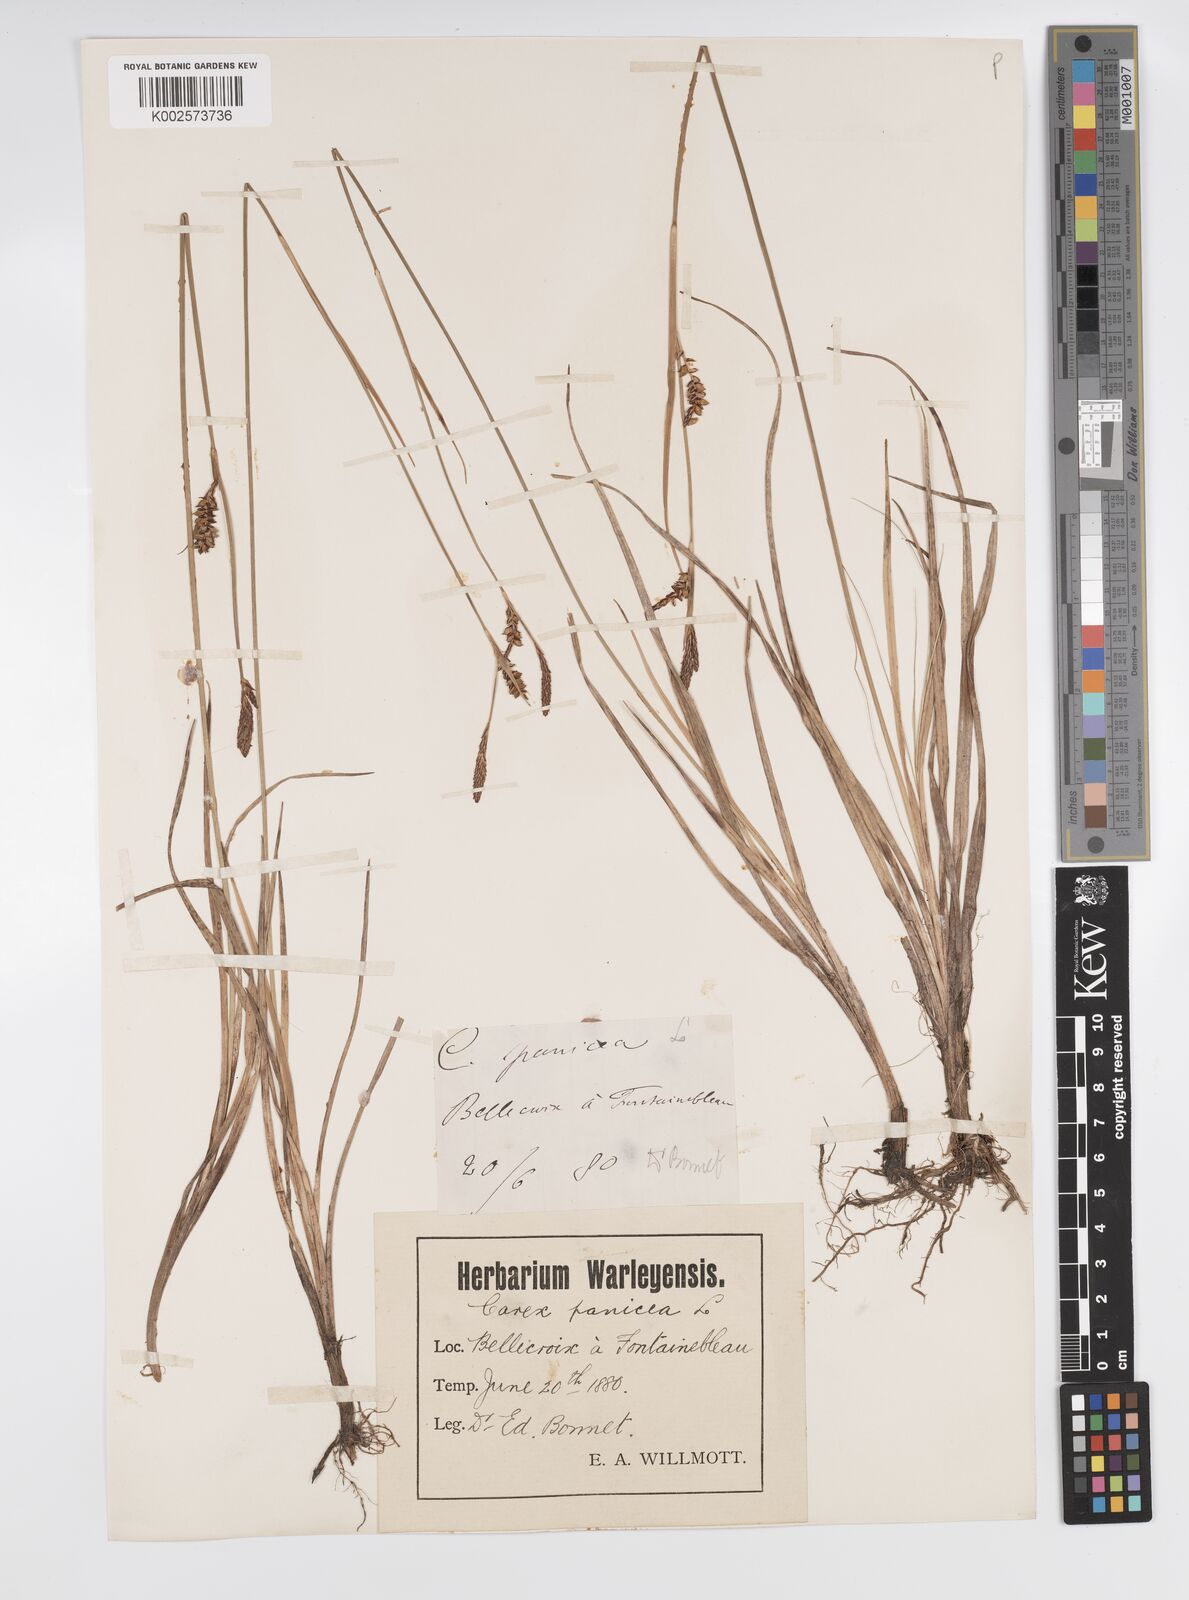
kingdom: Plantae
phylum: Tracheophyta
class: Liliopsida
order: Poales
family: Cyperaceae
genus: Carex
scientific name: Carex panicea
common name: Carnation sedge
